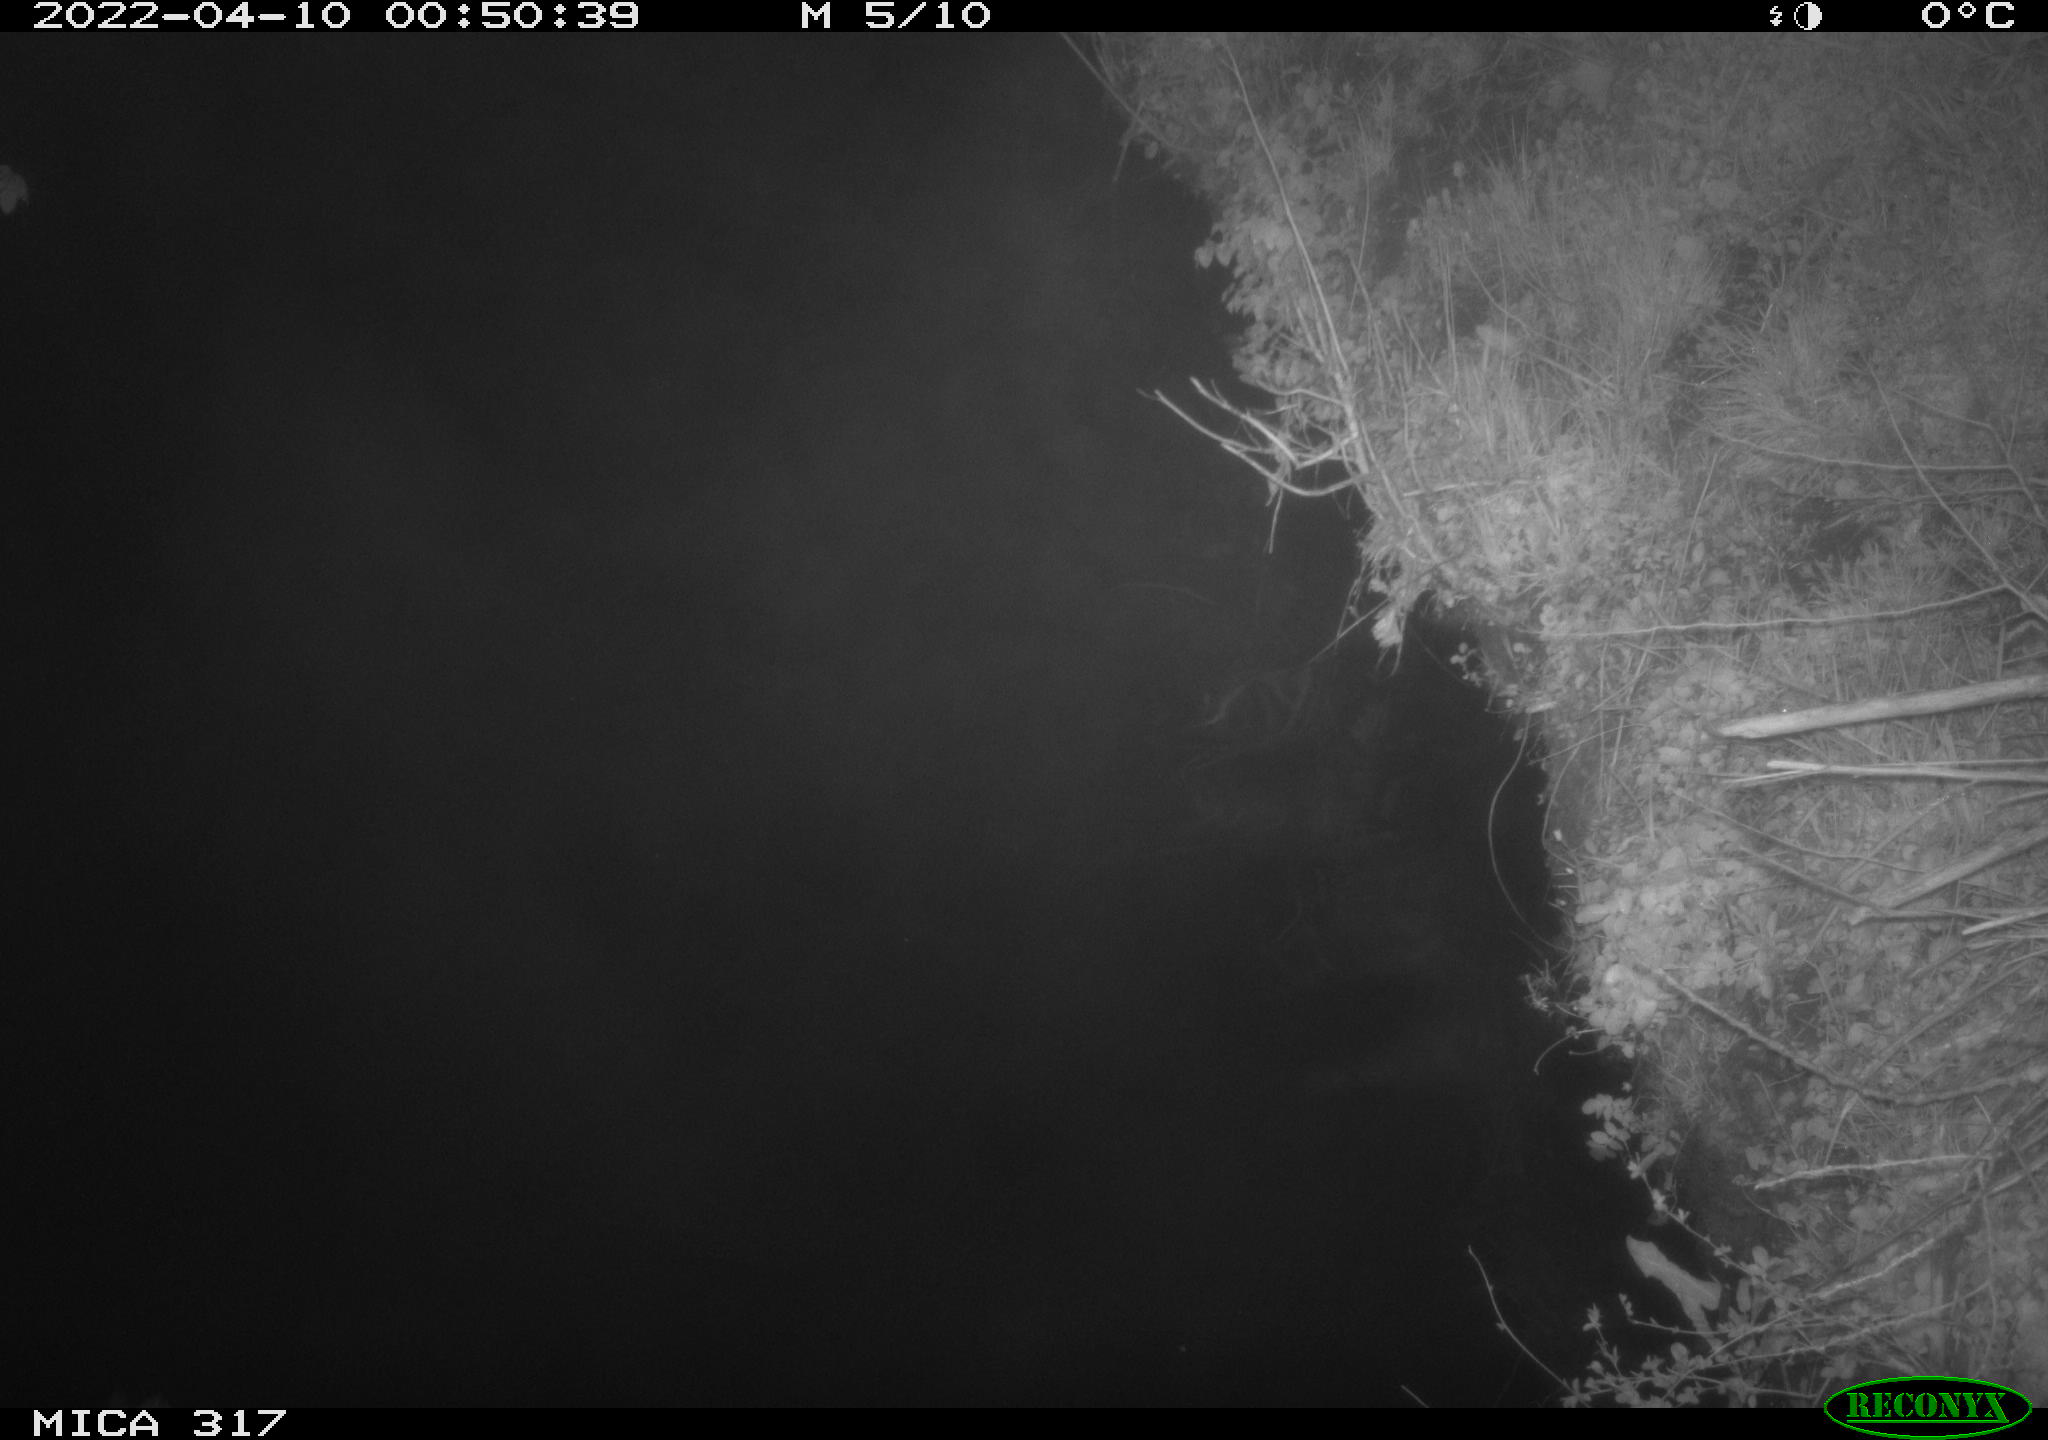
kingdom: Animalia
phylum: Chordata
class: Aves
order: Anseriformes
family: Anatidae
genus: Anas
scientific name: Anas platyrhynchos
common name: Mallard
